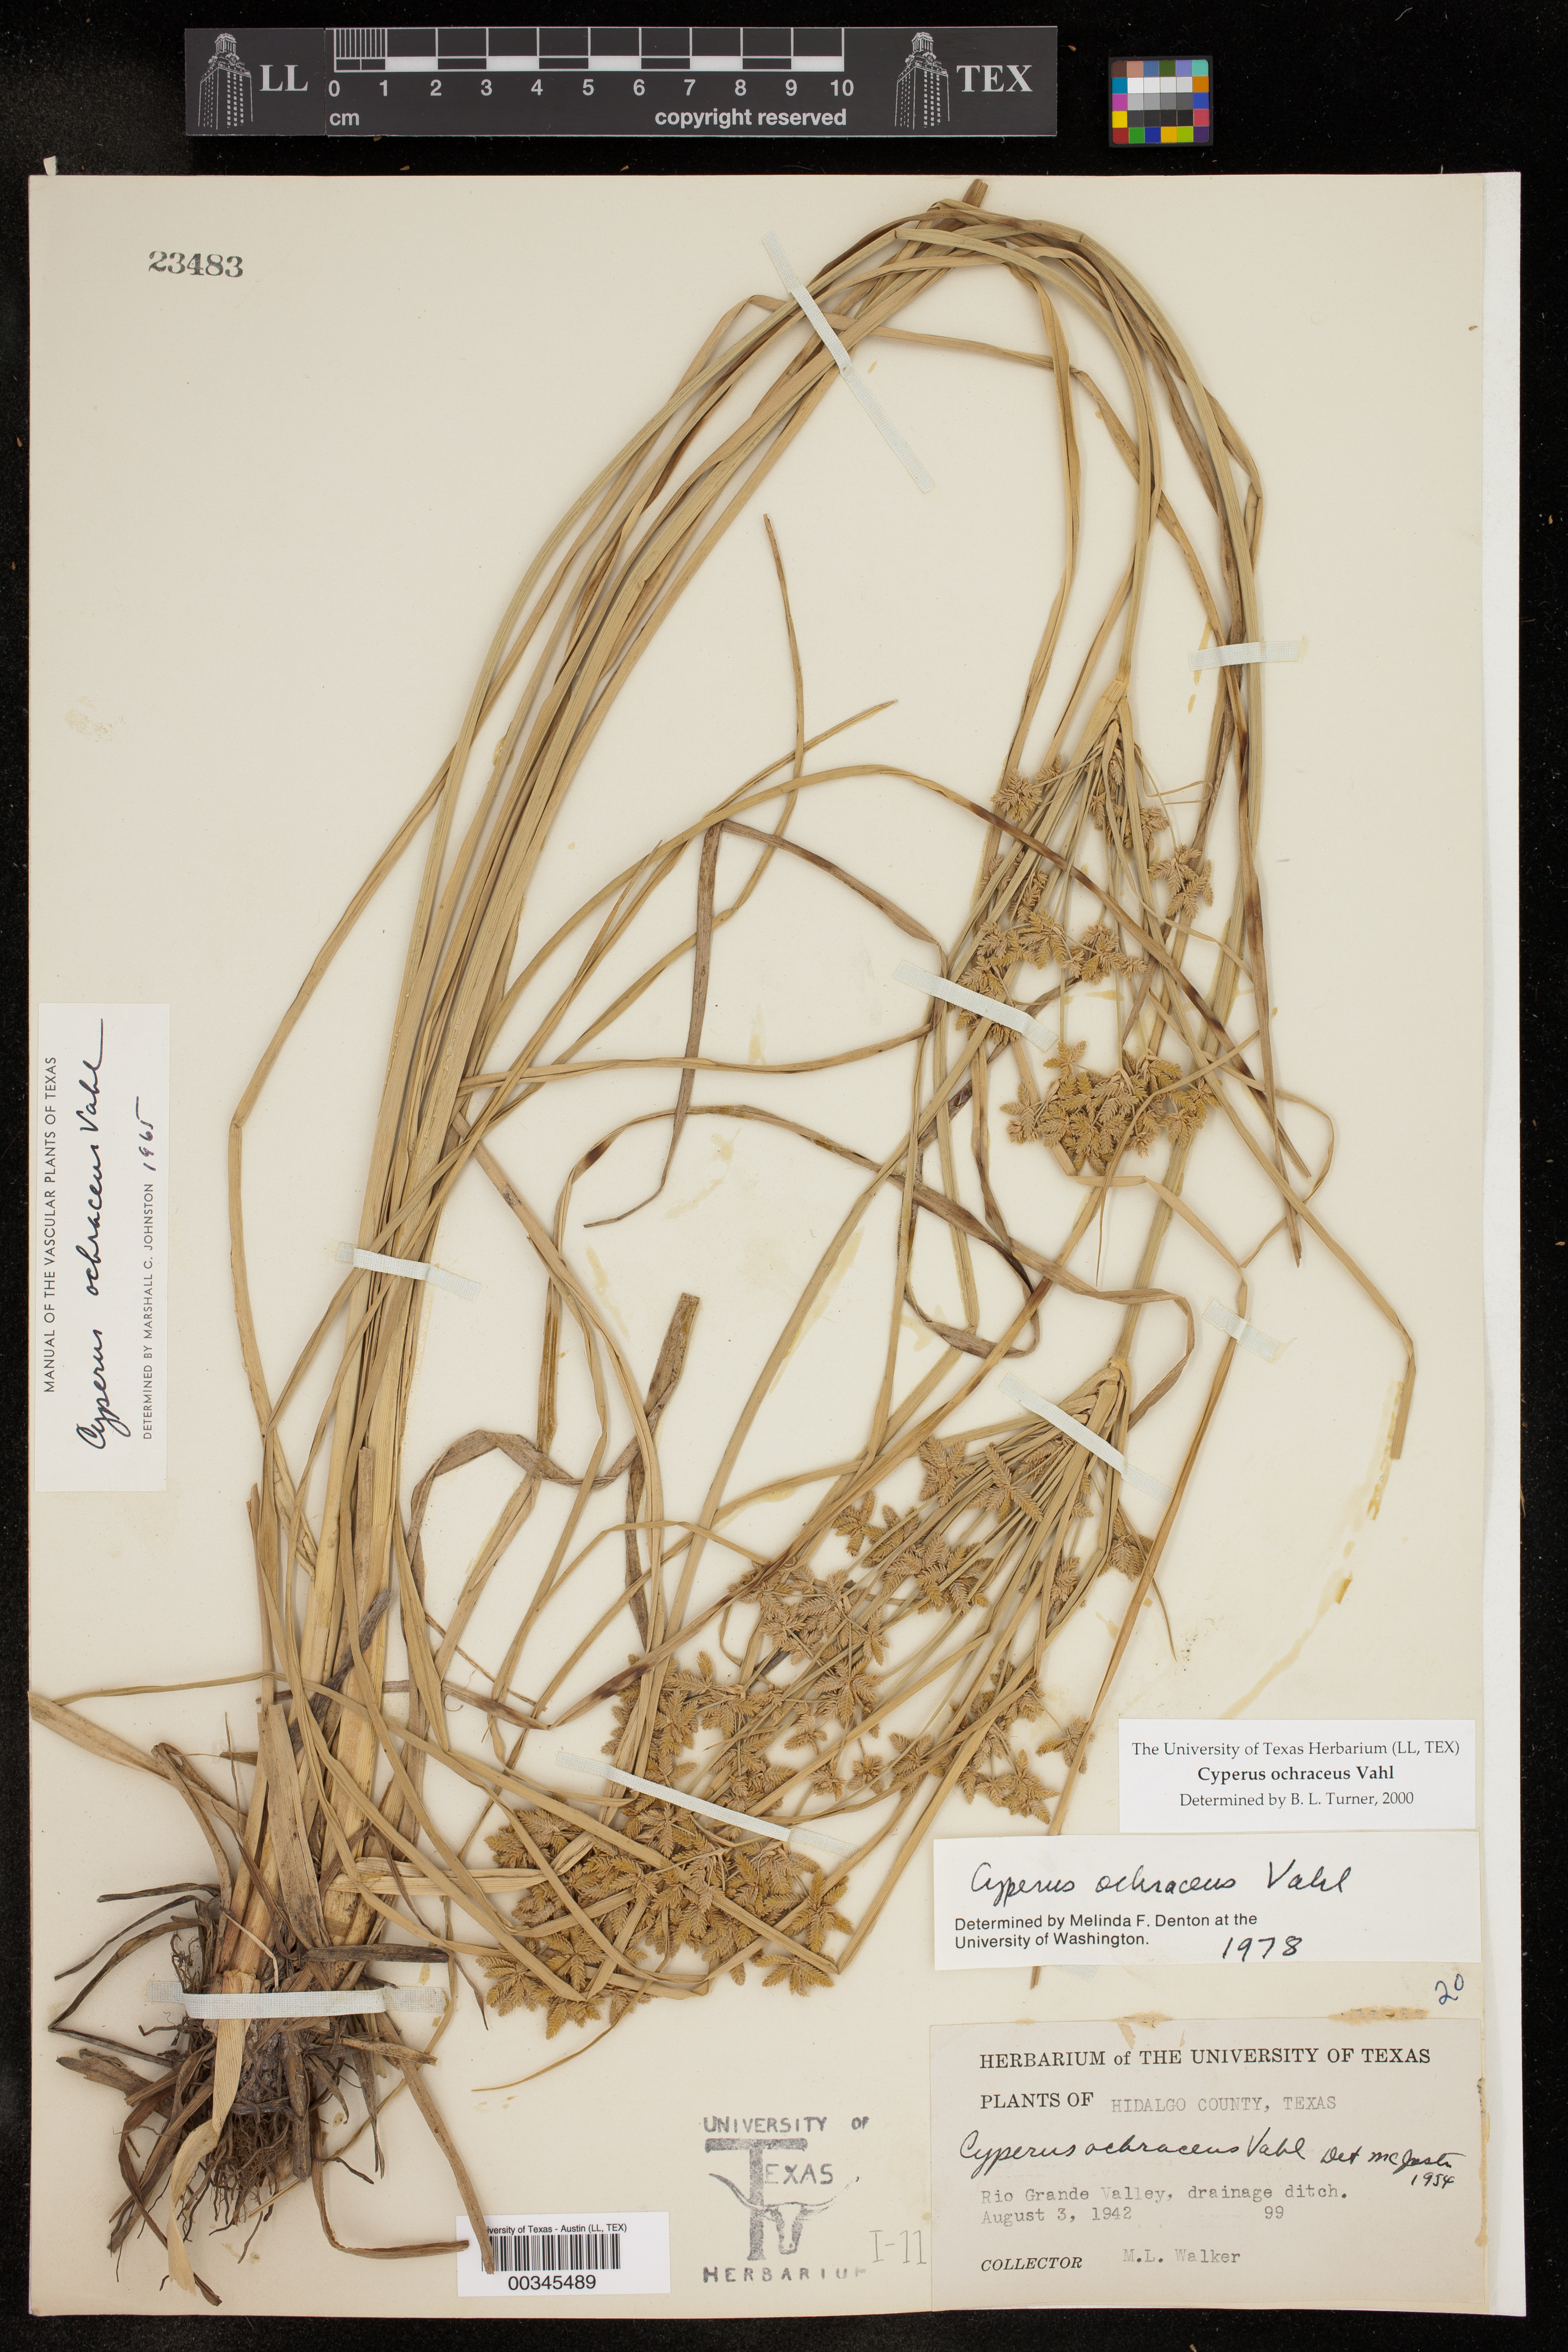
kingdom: Plantae
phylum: Tracheophyta
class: Liliopsida
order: Poales
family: Cyperaceae
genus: Cyperus
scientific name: Cyperus ochraceus
